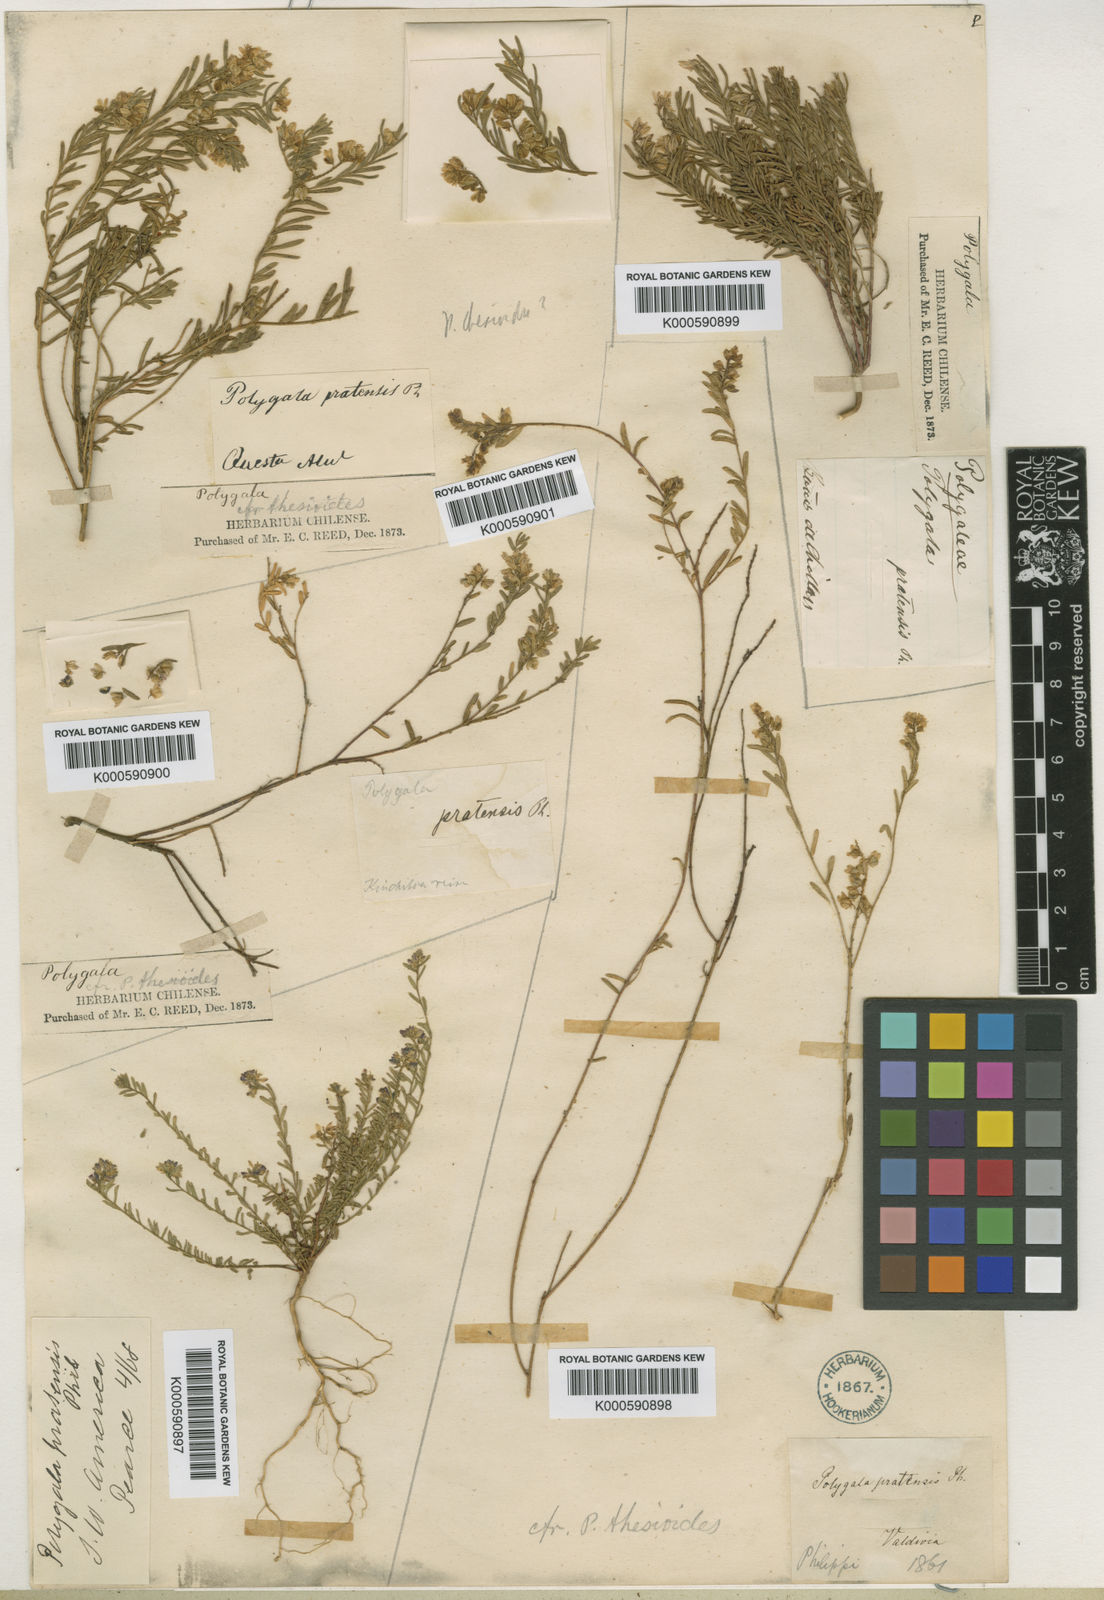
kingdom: Plantae
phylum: Tracheophyta
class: Magnoliopsida
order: Fabales
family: Polygalaceae
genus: Polygala
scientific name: Polygala gnidioides
